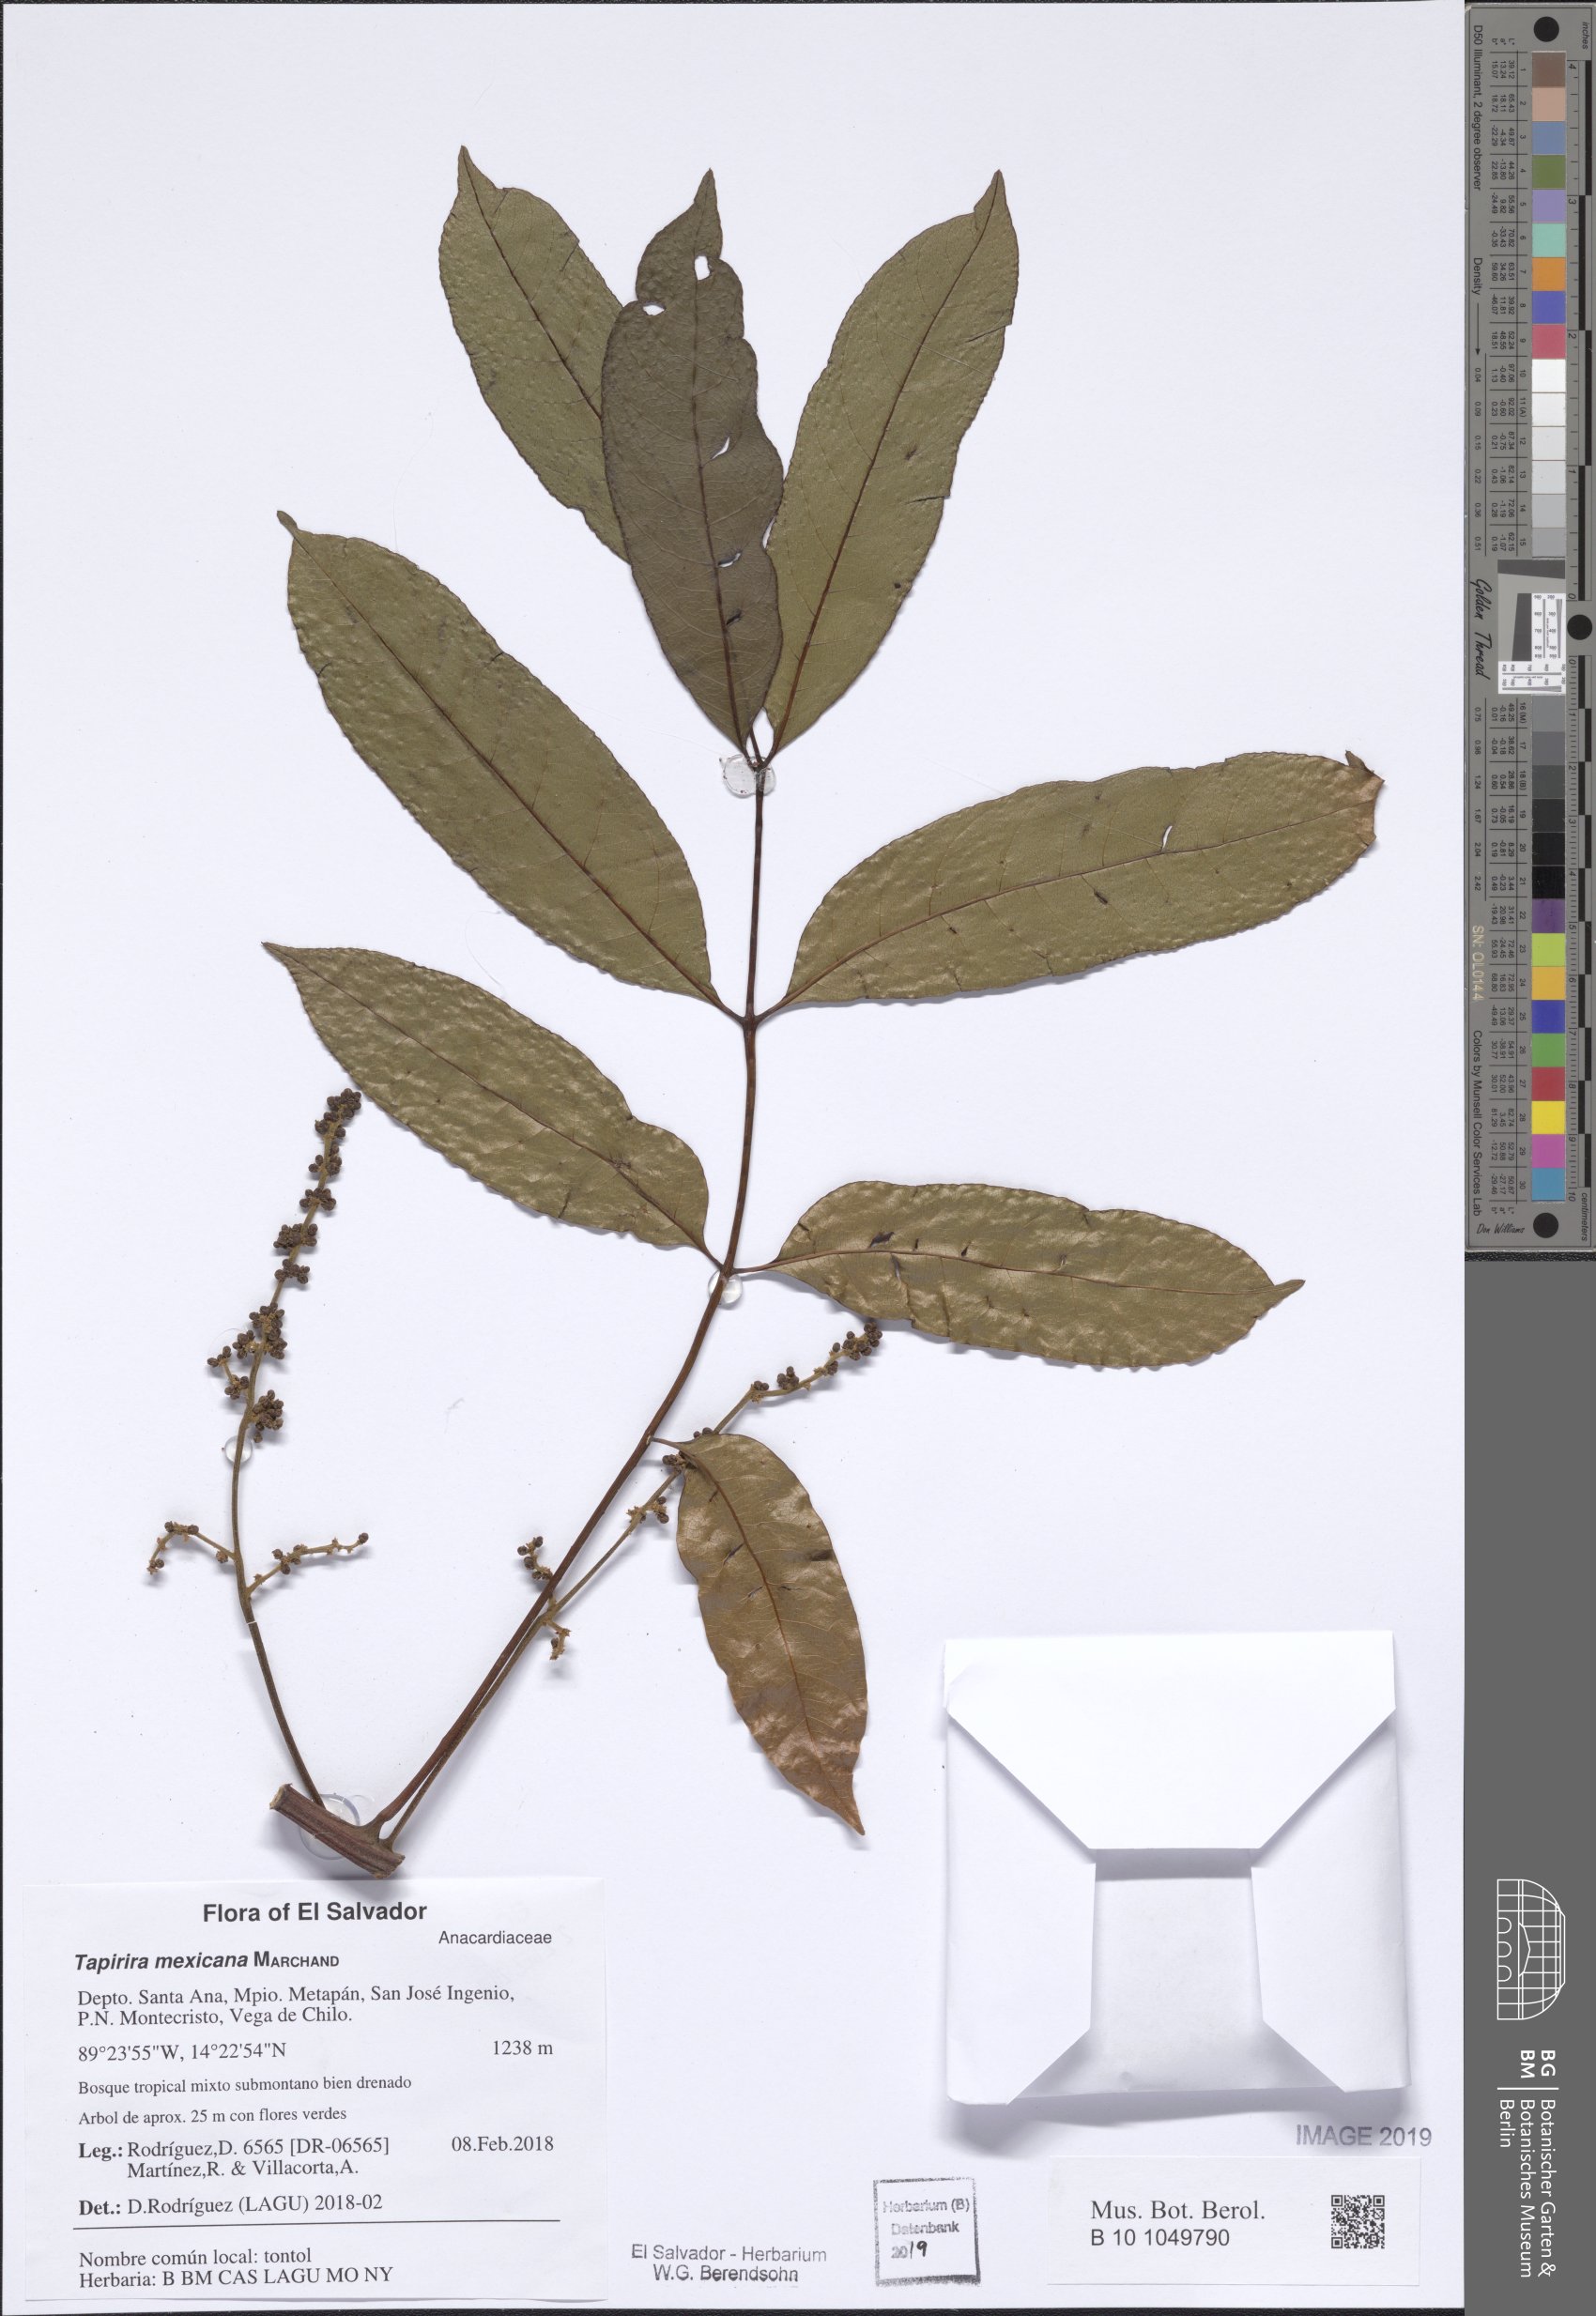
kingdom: Plantae
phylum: Tracheophyta
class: Magnoliopsida
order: Sapindales
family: Anacardiaceae
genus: Tapirira
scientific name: Tapirira mexicana
